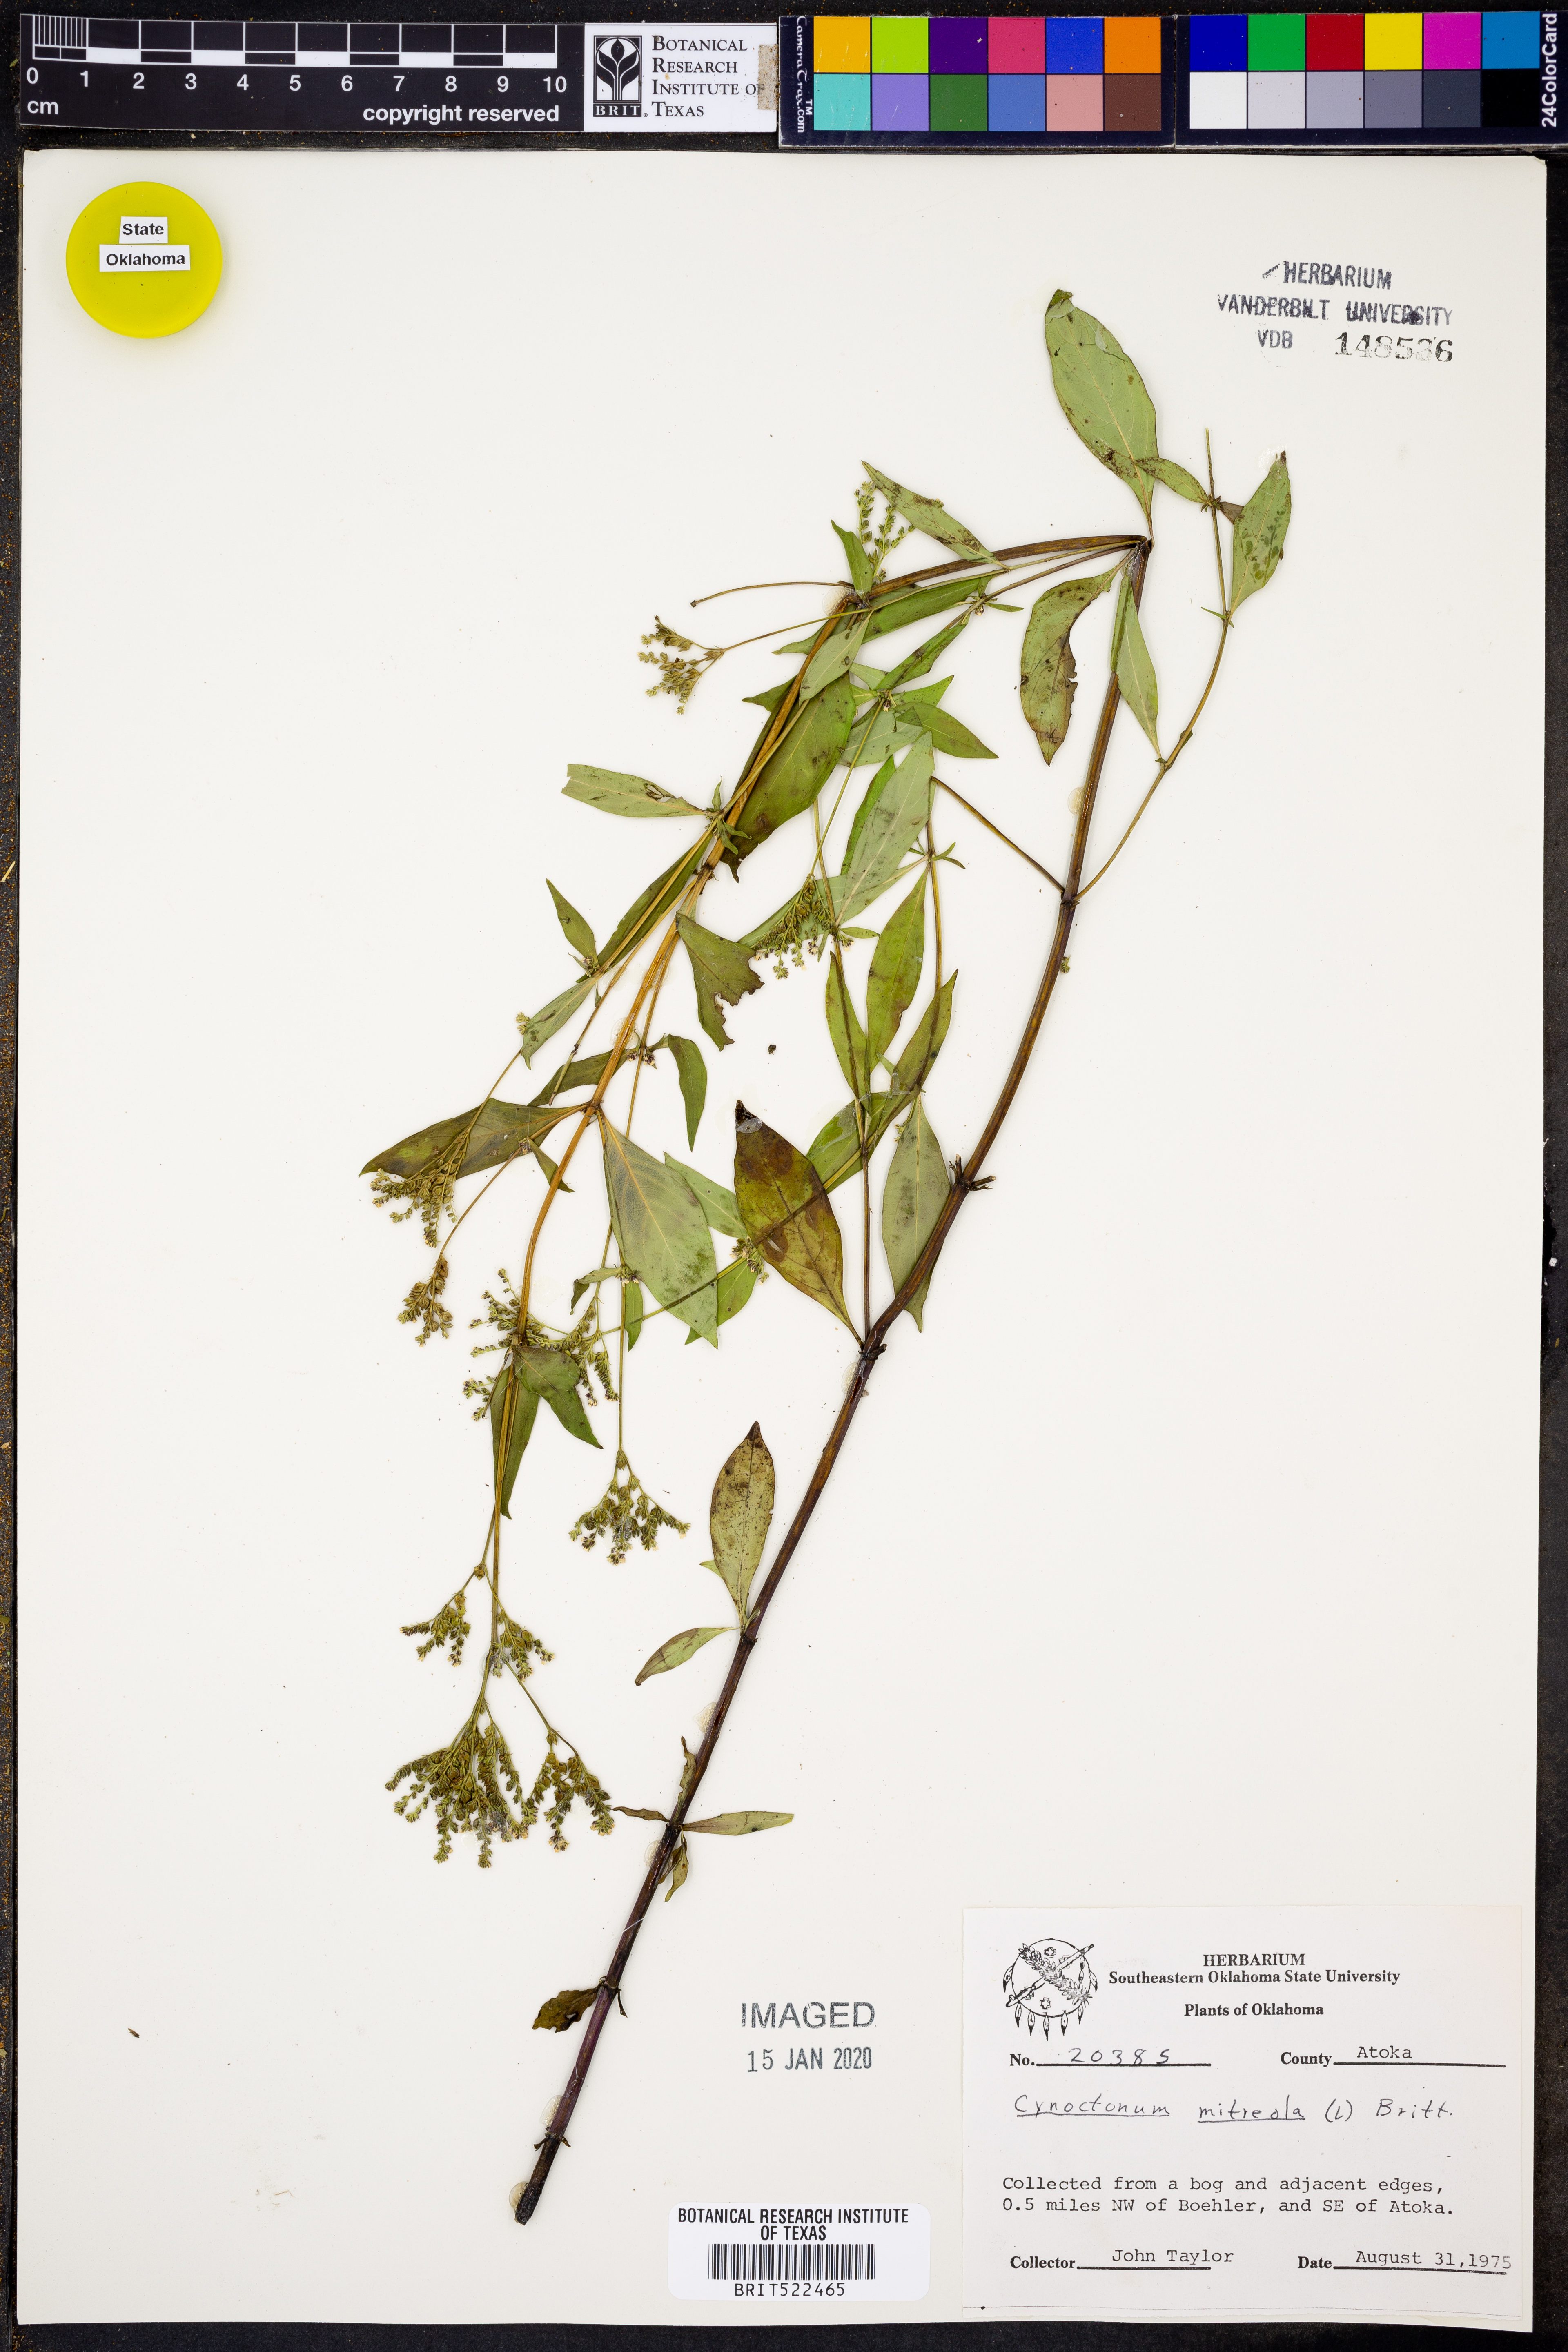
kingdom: Plantae
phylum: Tracheophyta
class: Magnoliopsida
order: Gentianales
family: Loganiaceae
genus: Mitreola
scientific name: Mitreola petiolata
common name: Lax hornpod
